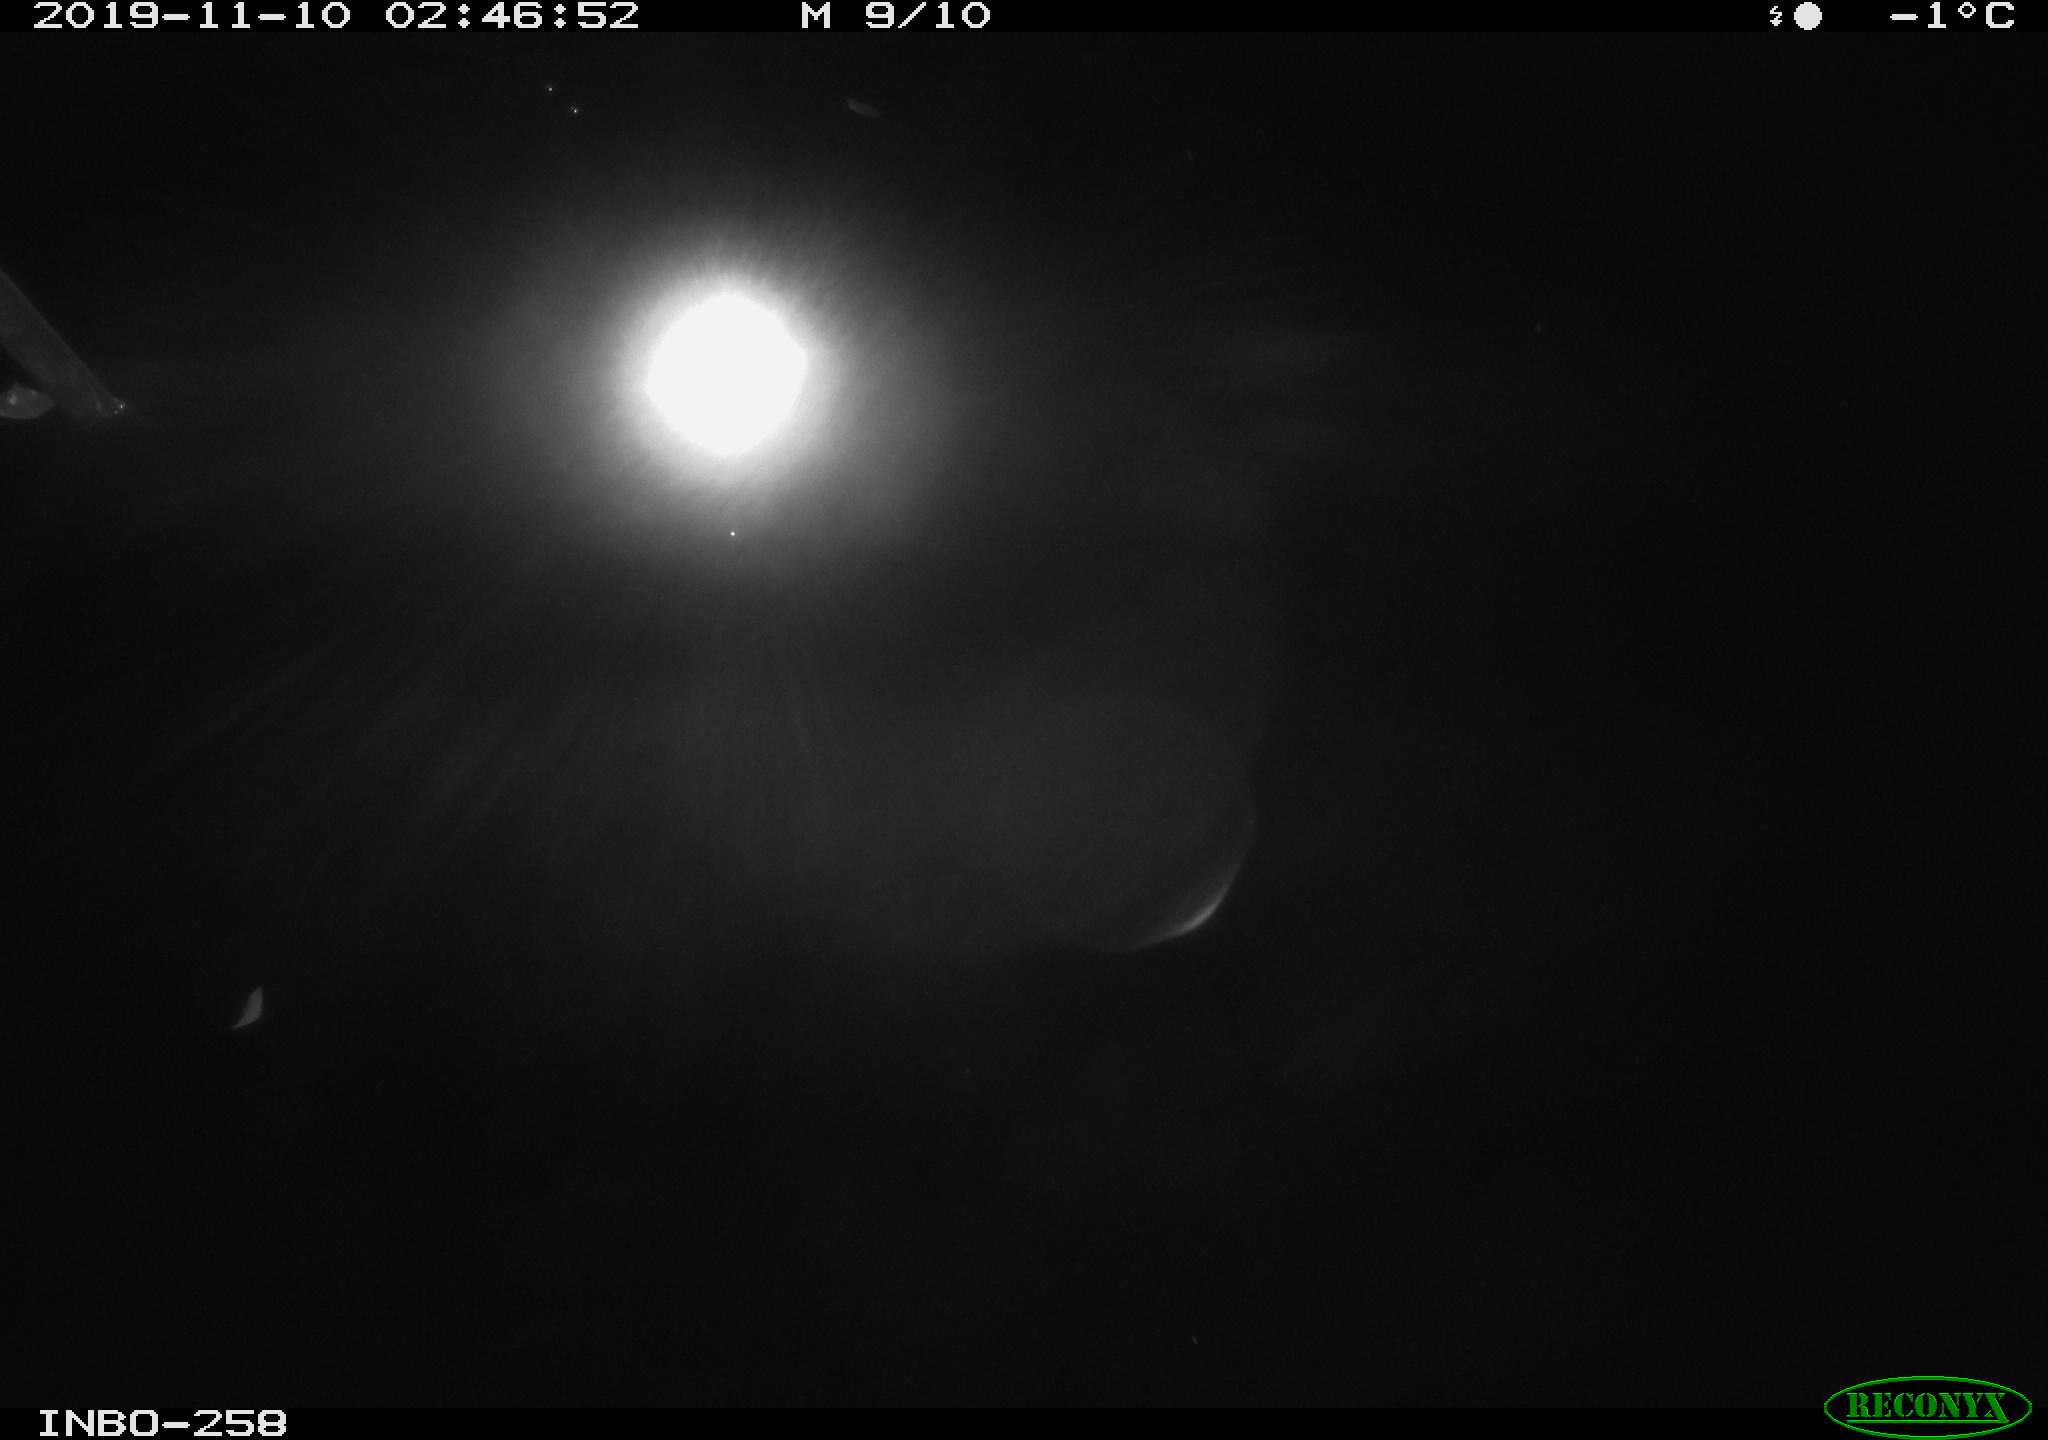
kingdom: Animalia
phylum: Chordata
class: Aves
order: Anseriformes
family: Anatidae
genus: Anas
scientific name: Anas platyrhynchos
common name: Mallard
